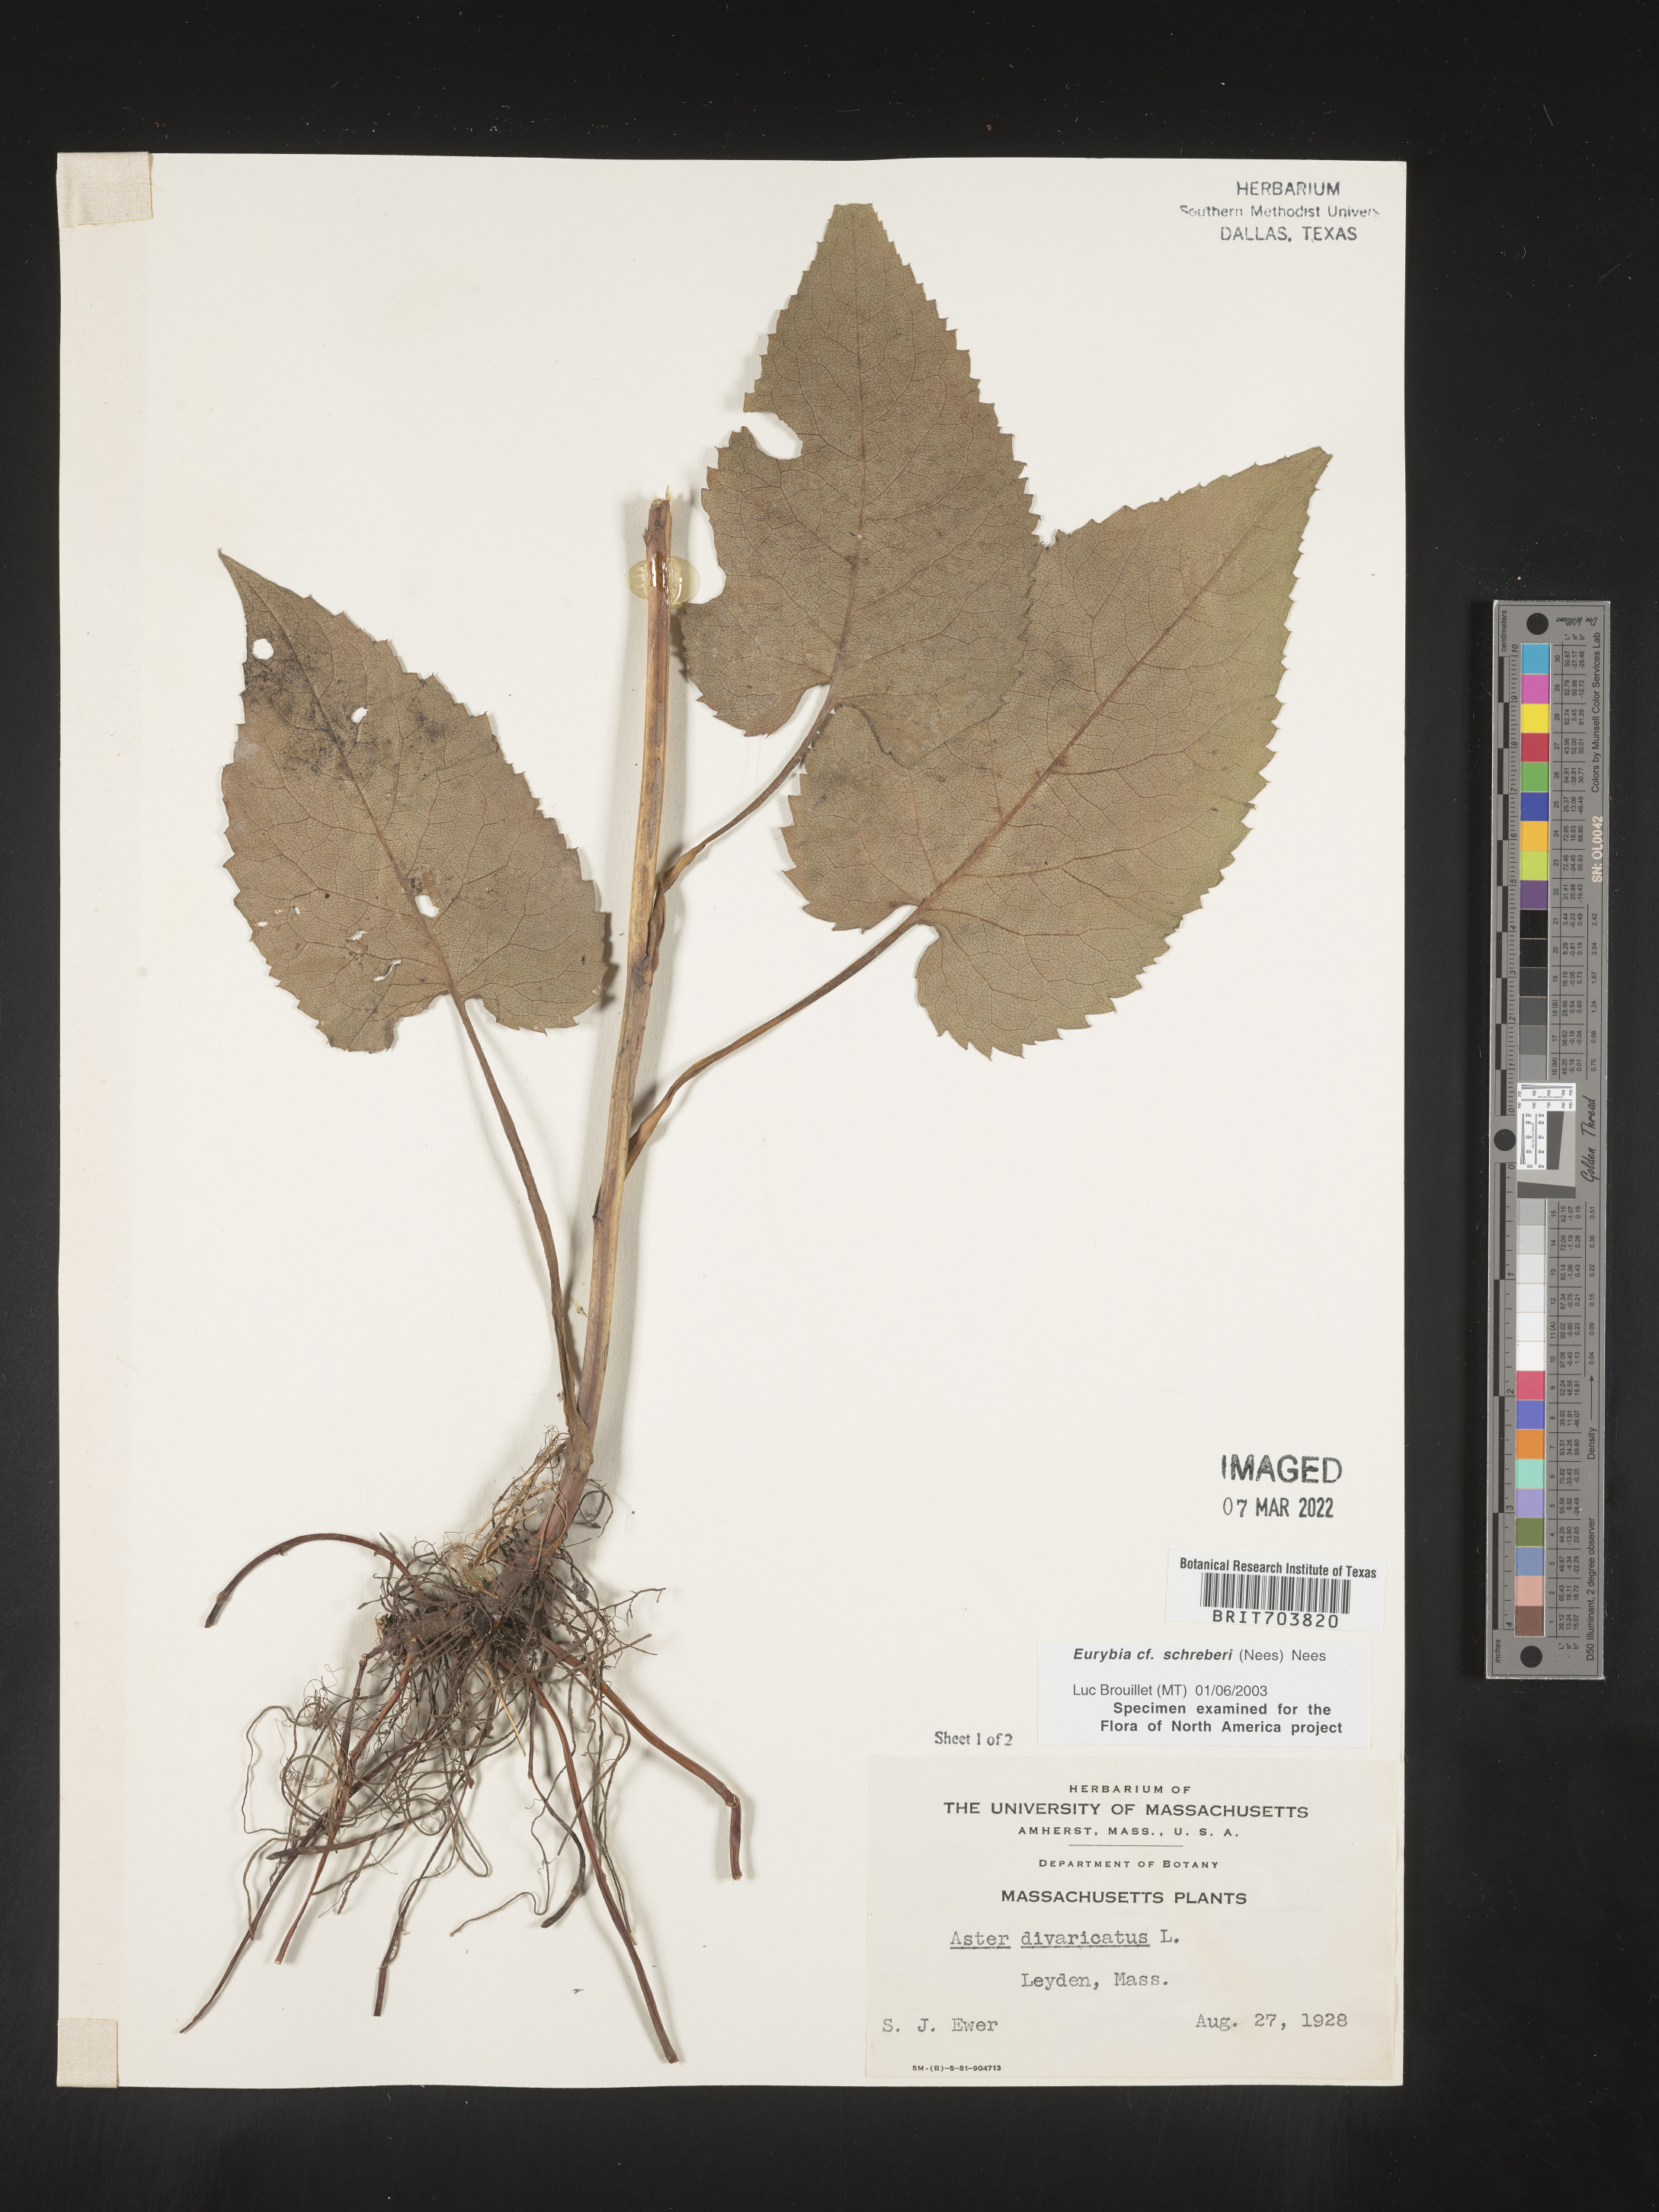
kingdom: Plantae
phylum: Tracheophyta
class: Magnoliopsida
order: Asterales
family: Asteraceae
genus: Eurybia
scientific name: Eurybia schreberi
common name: Schreber's aster
